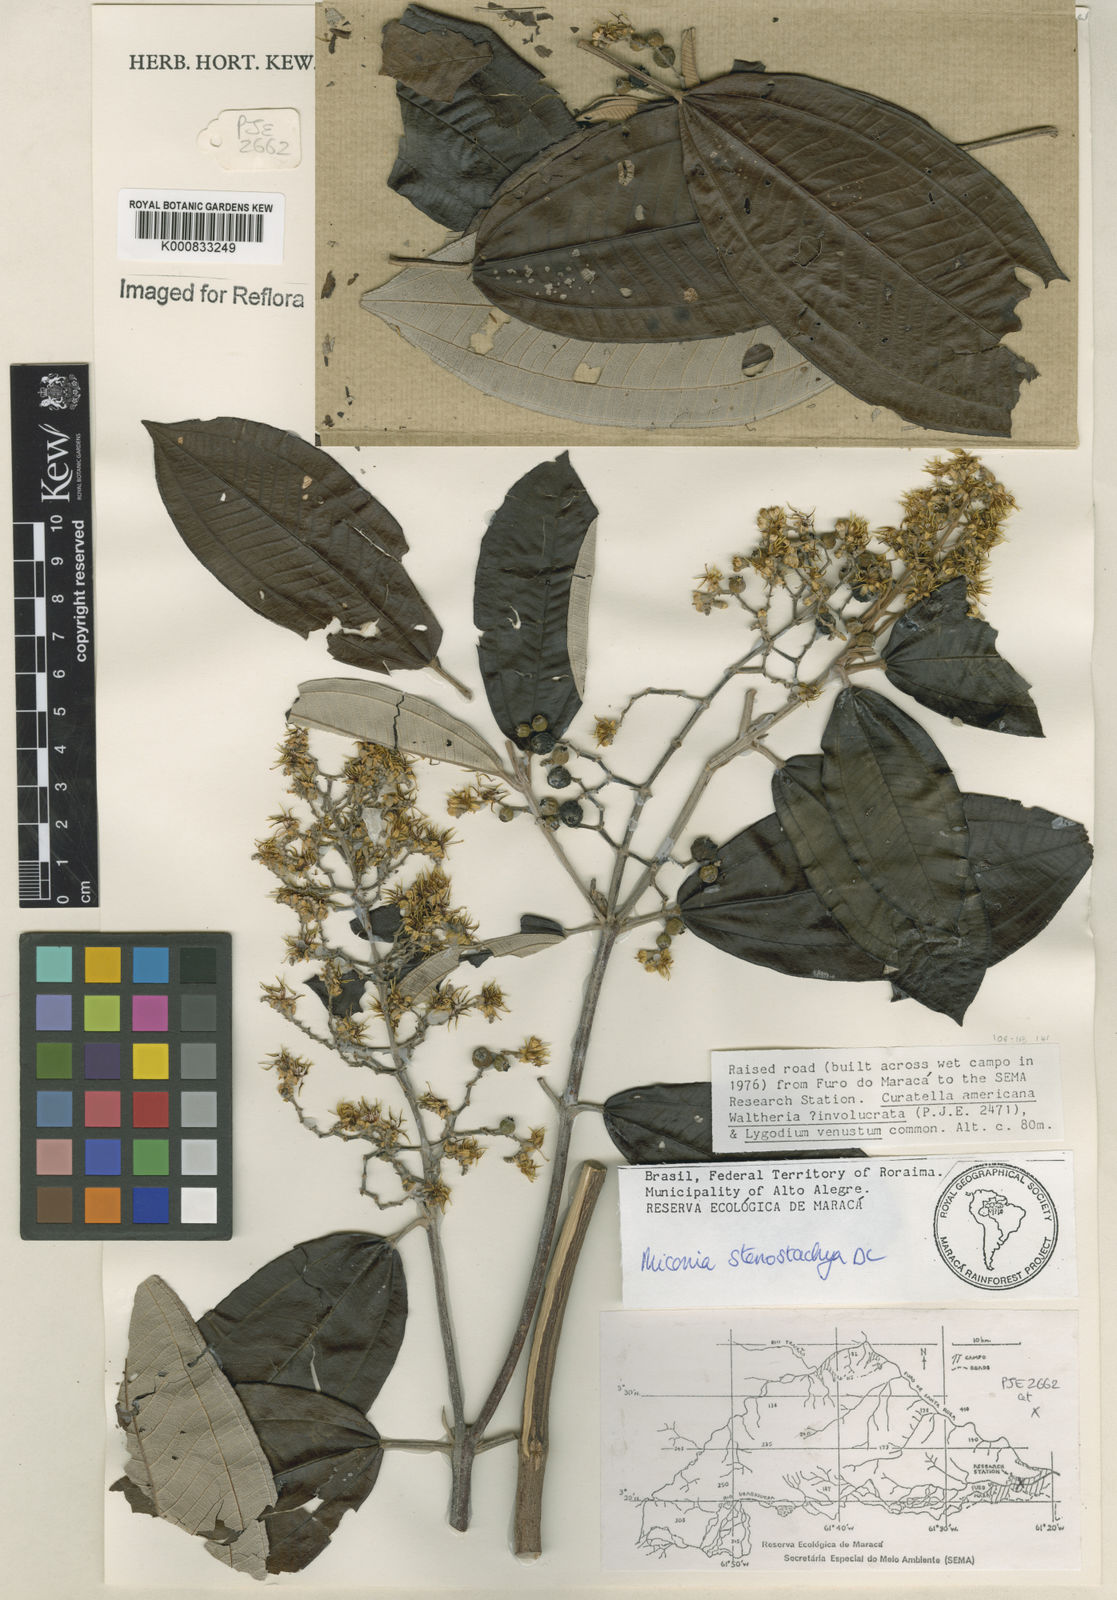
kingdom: Plantae
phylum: Tracheophyta
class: Magnoliopsida
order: Myrtales
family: Melastomataceae
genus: Miconia
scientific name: Miconia stenostachya
